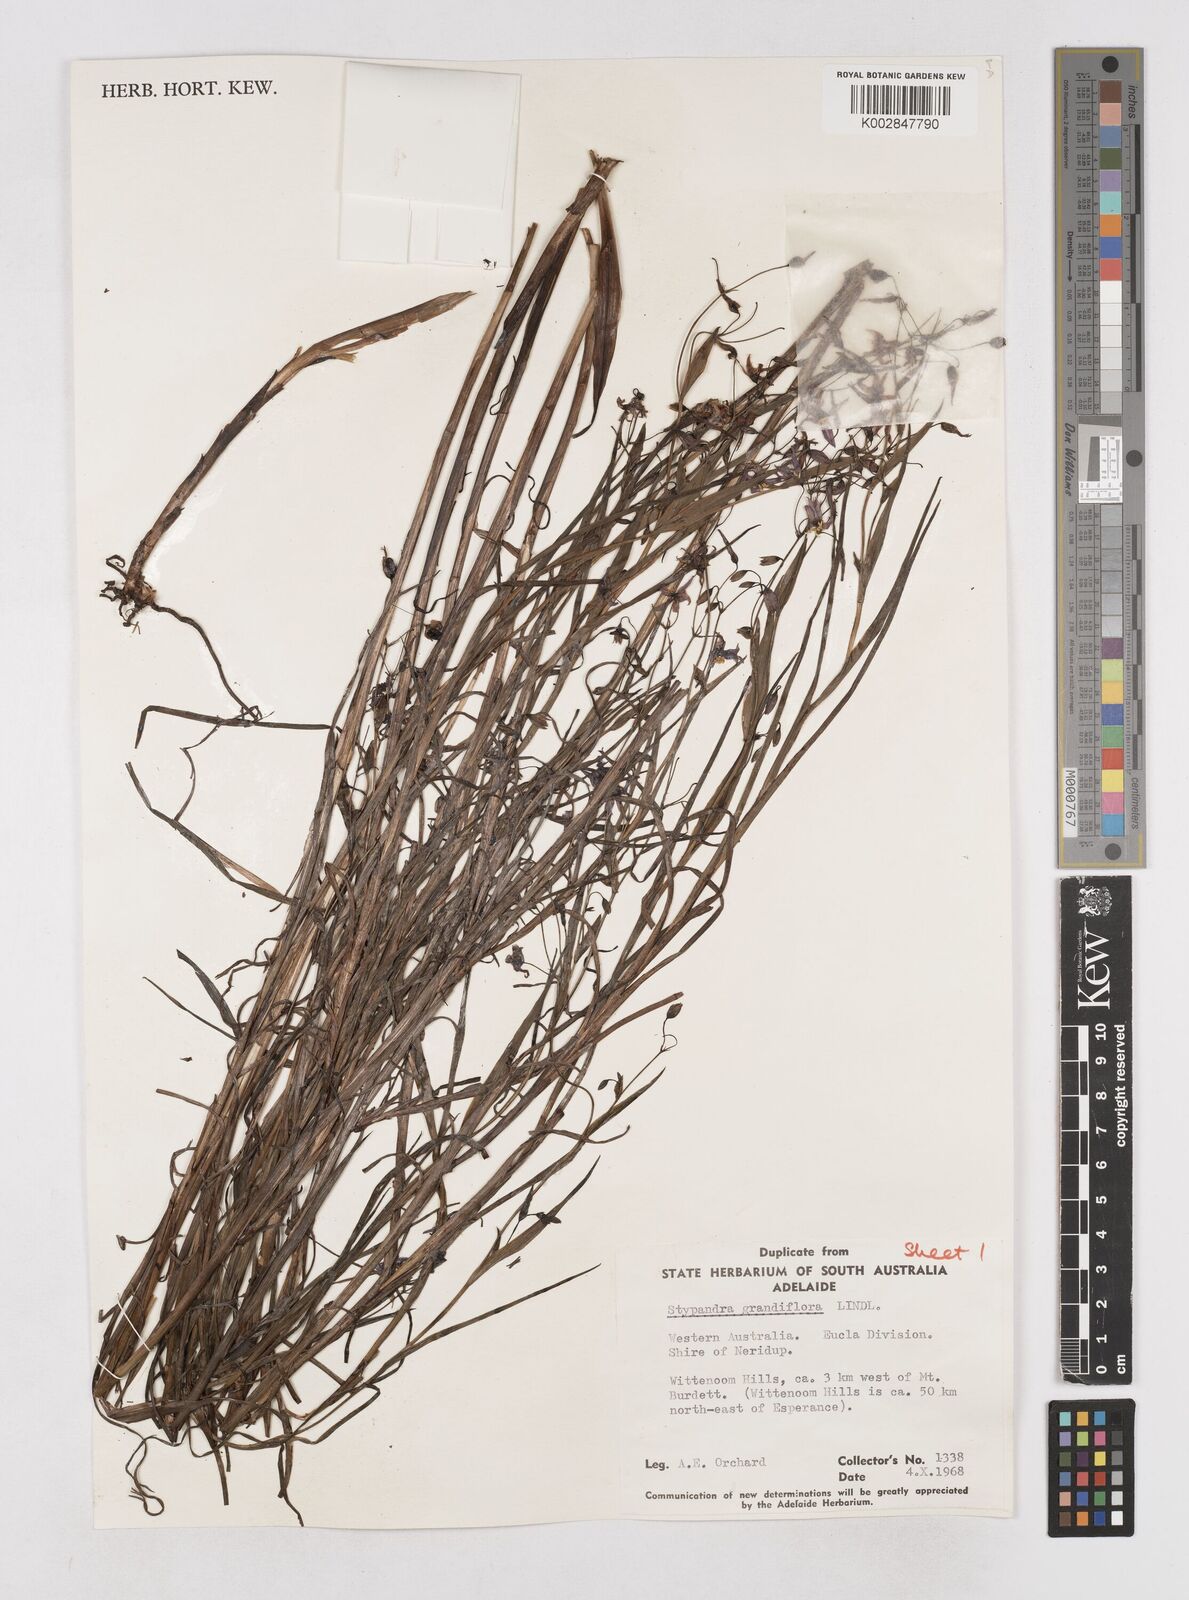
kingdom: Plantae
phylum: Tracheophyta
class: Liliopsida
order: Asparagales
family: Asphodelaceae
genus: Stypandra
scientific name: Stypandra glauca
